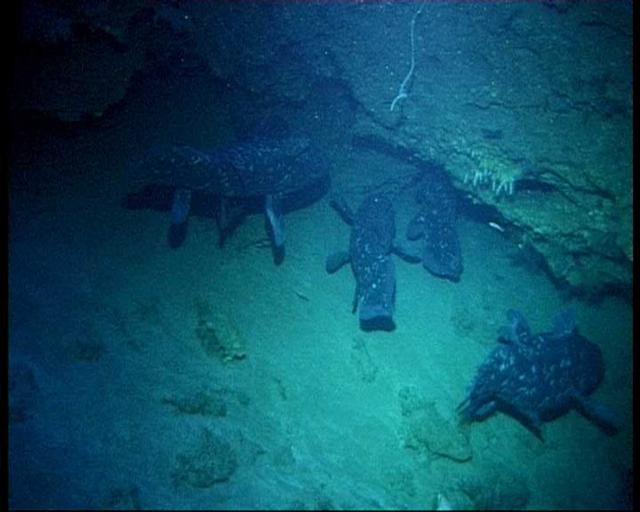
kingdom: Animalia
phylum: Chordata
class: Coelacanthi
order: Coelacanthiformes
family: Latimeriidae
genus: Latimeria
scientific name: Latimeria chalumnae
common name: Coelacanth
